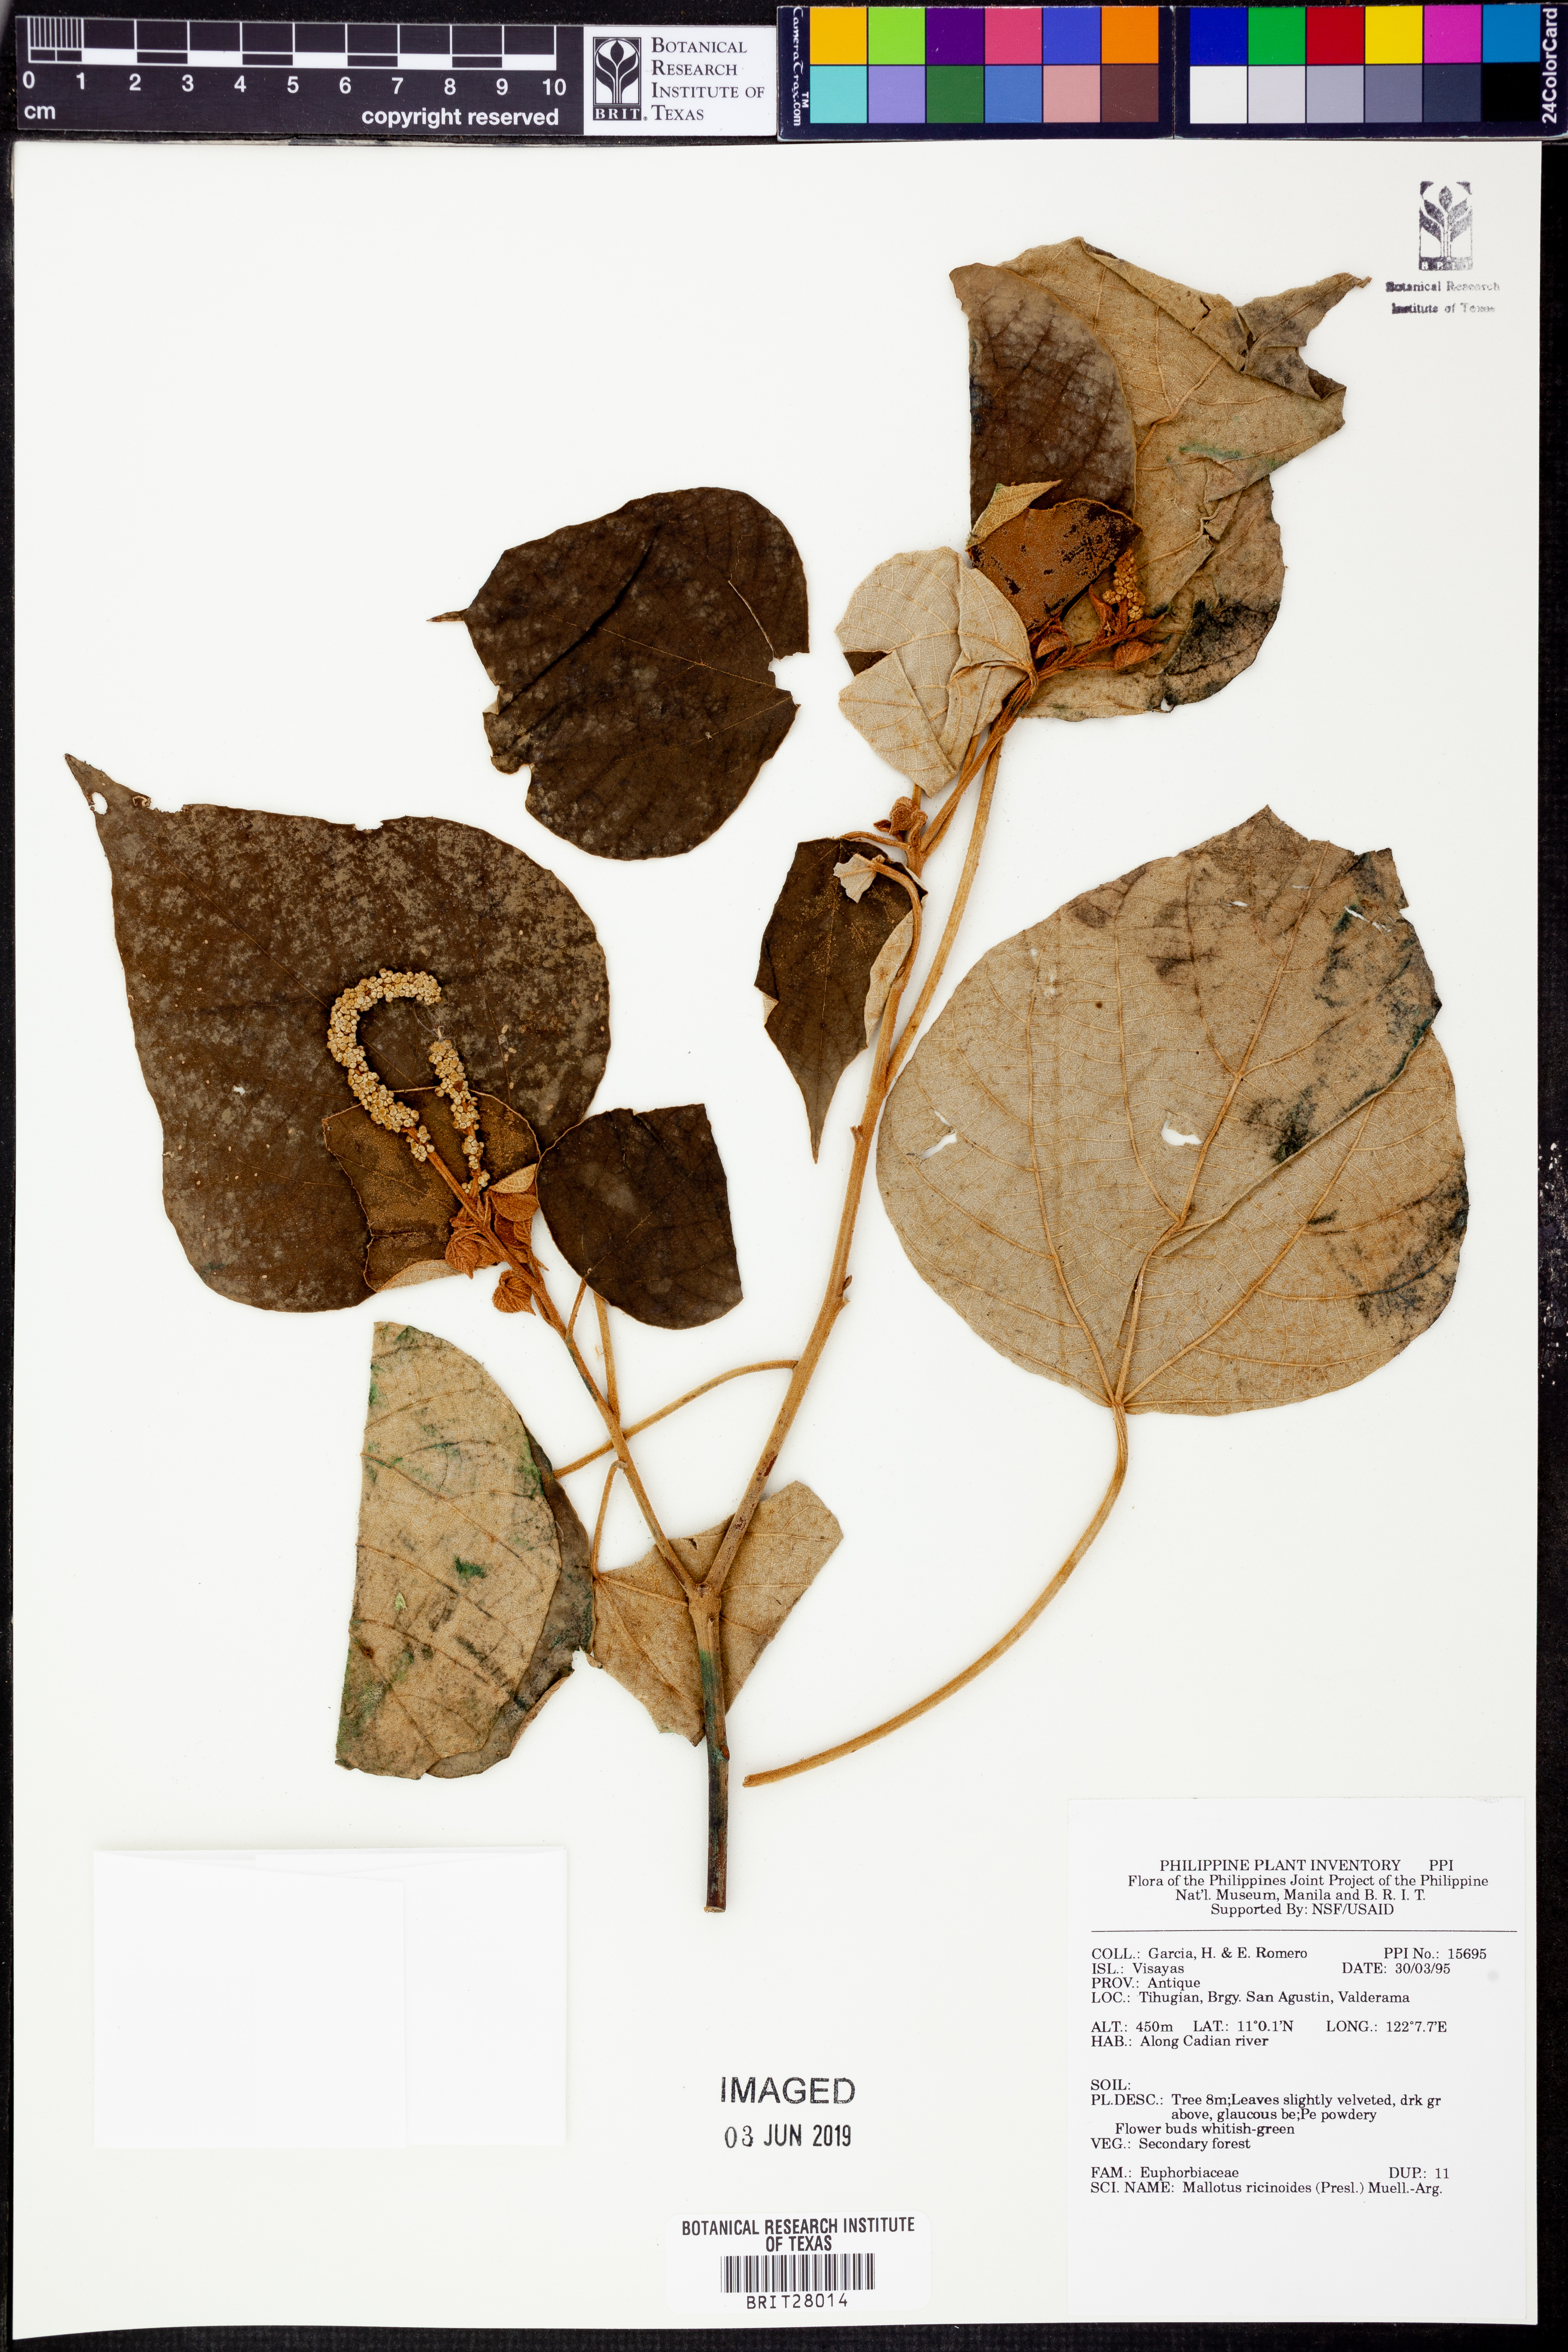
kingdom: Plantae
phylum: Tracheophyta
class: Magnoliopsida
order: Malpighiales
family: Euphorbiaceae
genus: Mallotus
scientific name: Mallotus mollissimus
